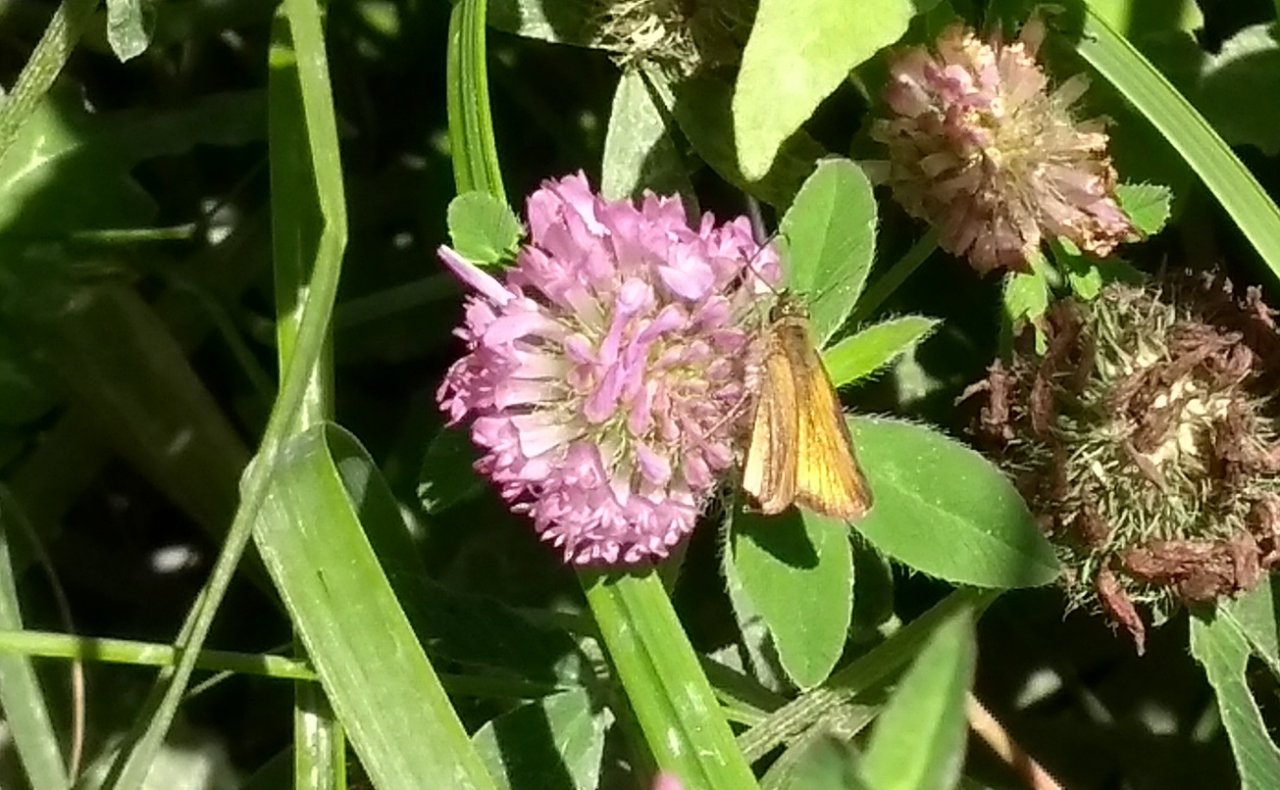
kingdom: Animalia
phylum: Arthropoda
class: Insecta
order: Lepidoptera
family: Hesperiidae
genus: Thymelicus
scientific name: Thymelicus lineola
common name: European Skipper
